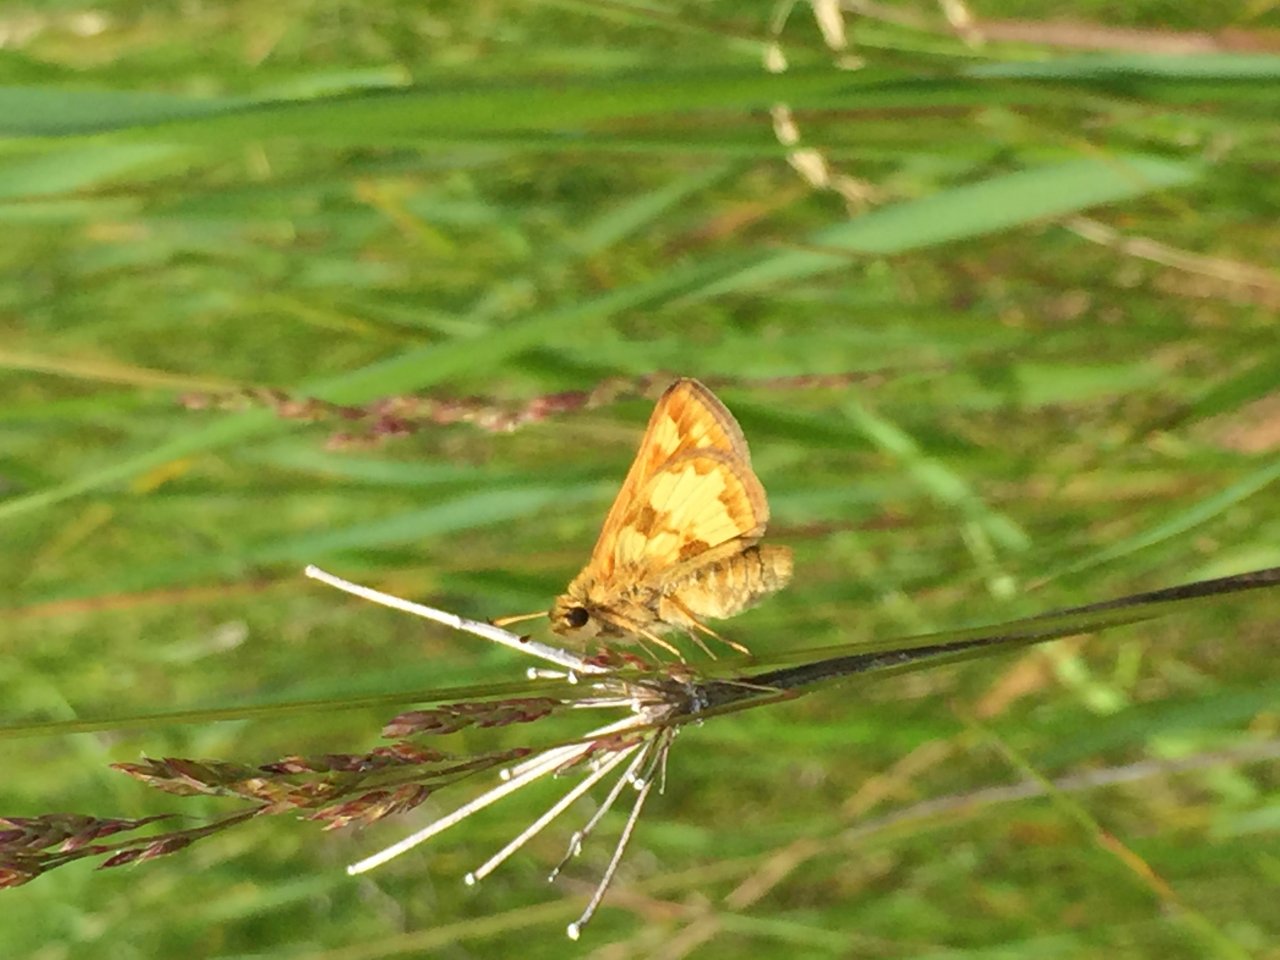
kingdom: Animalia
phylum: Arthropoda
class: Insecta
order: Lepidoptera
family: Hesperiidae
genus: Polites
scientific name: Polites coras
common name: Peck's Skipper
